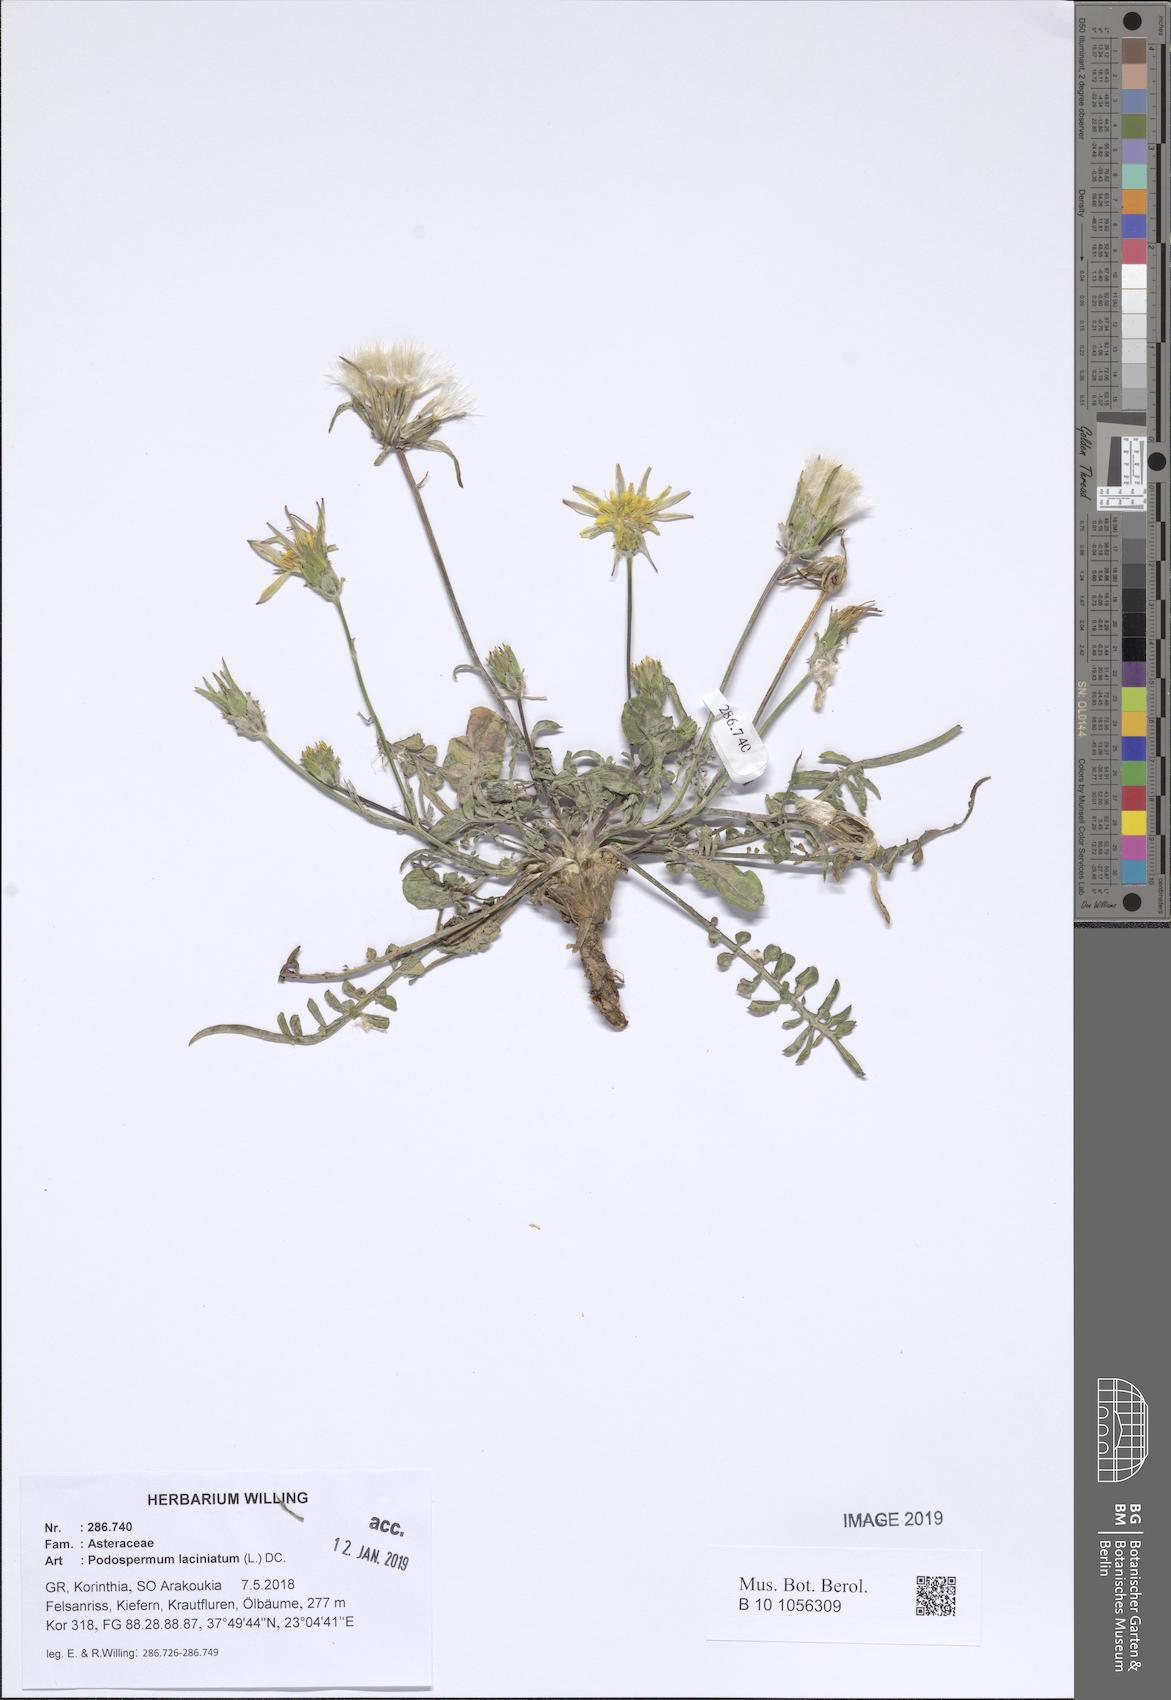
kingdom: Plantae
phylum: Tracheophyta
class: Magnoliopsida
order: Asterales
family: Asteraceae
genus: Scorzonera
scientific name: Scorzonera laciniata
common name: Cutleaf vipergrass
